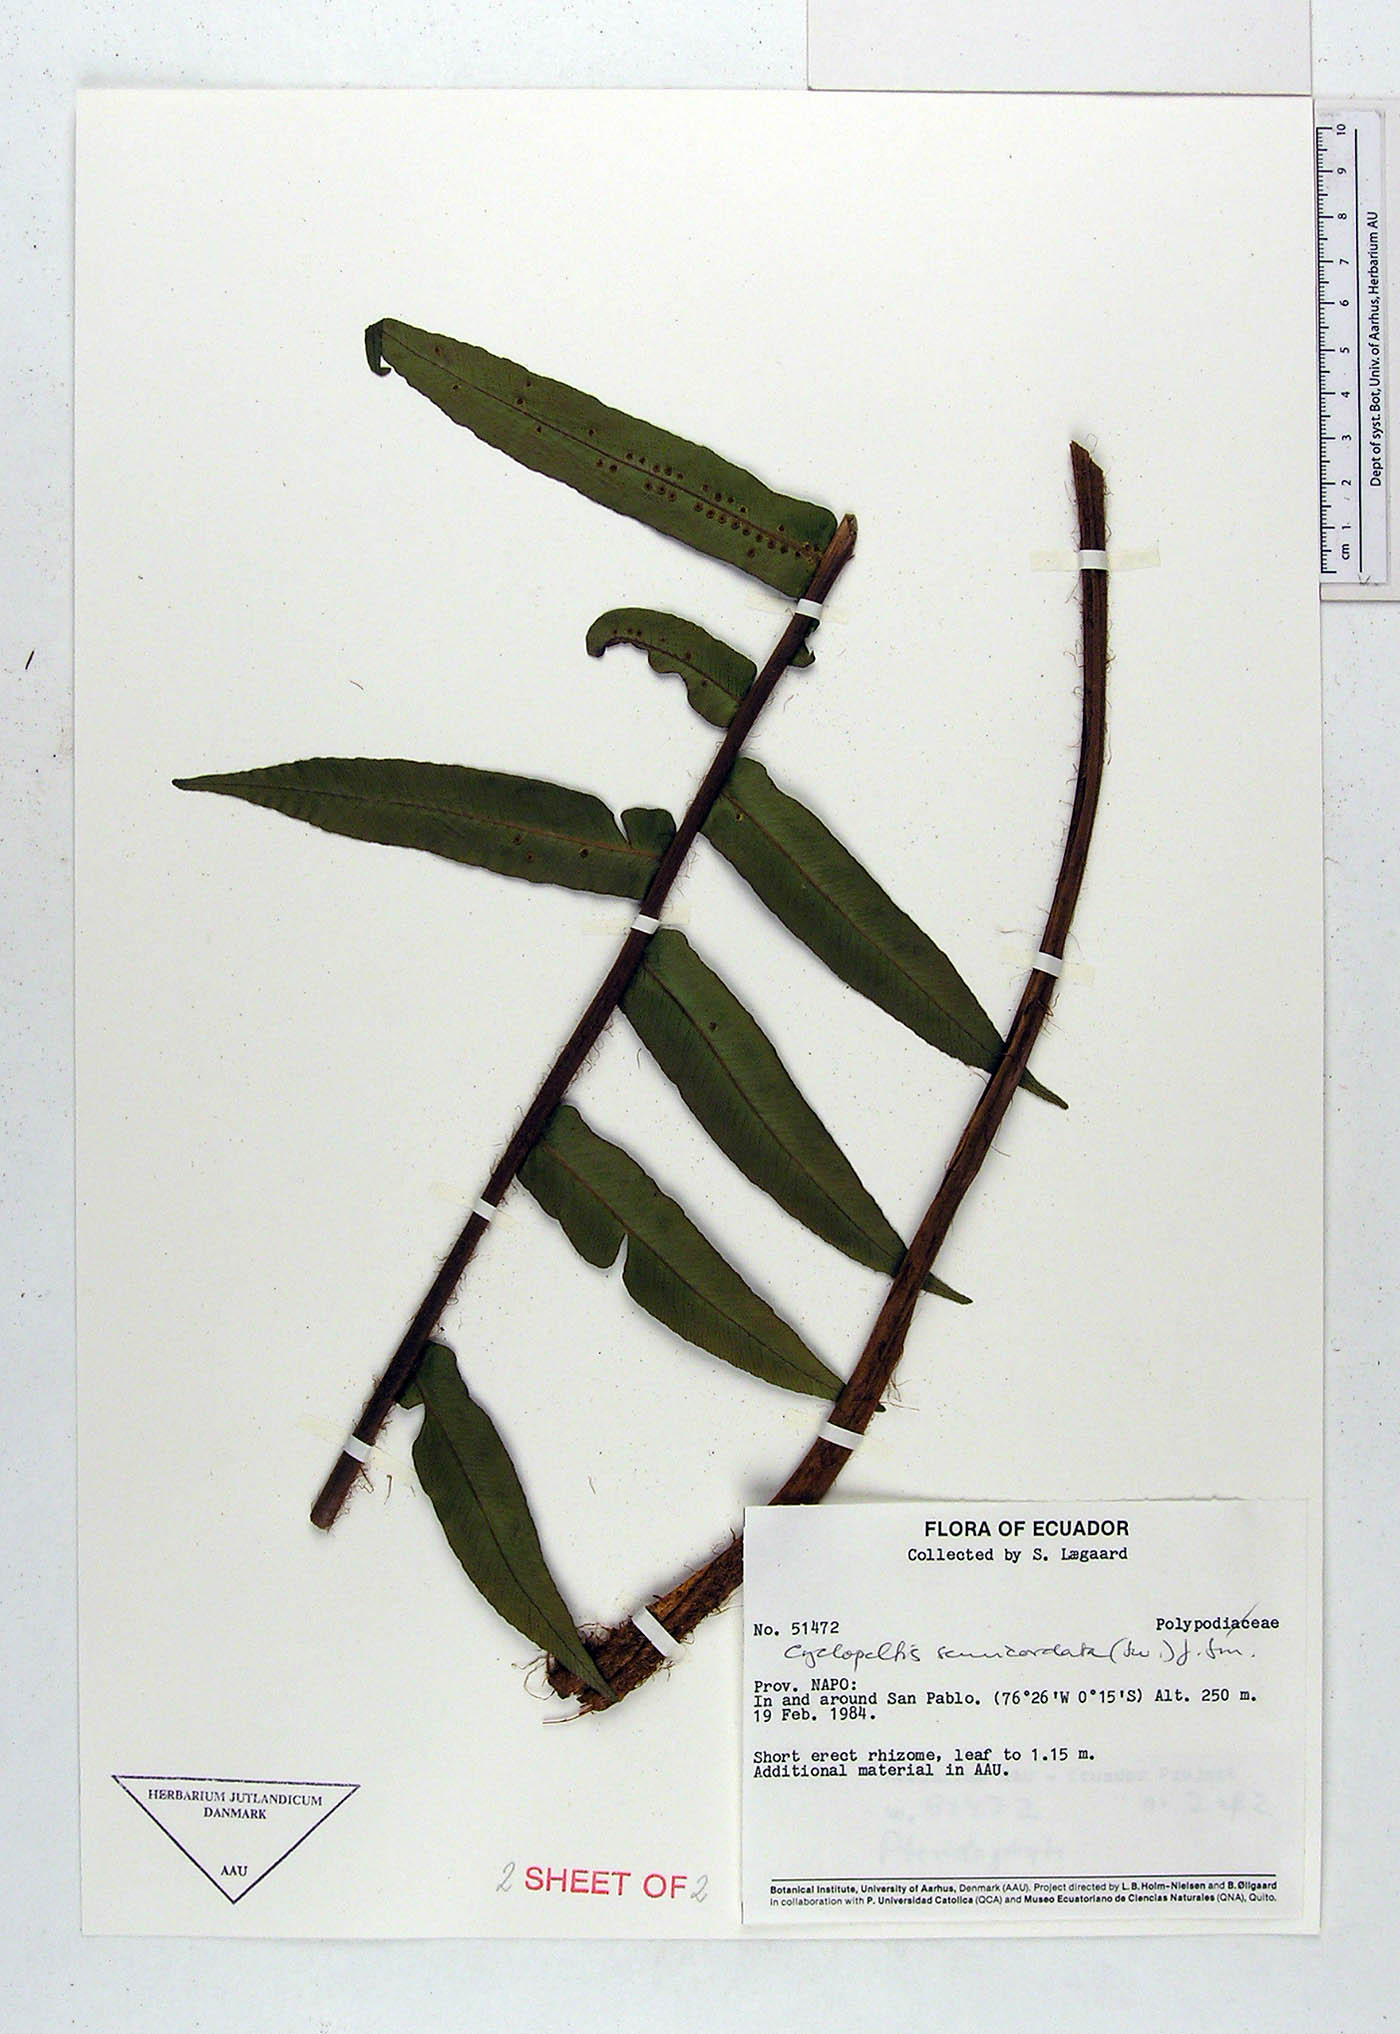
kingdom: Plantae
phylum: Tracheophyta
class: Polypodiopsida
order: Polypodiales
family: Polypodiaceae
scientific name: Polypodiaceae
